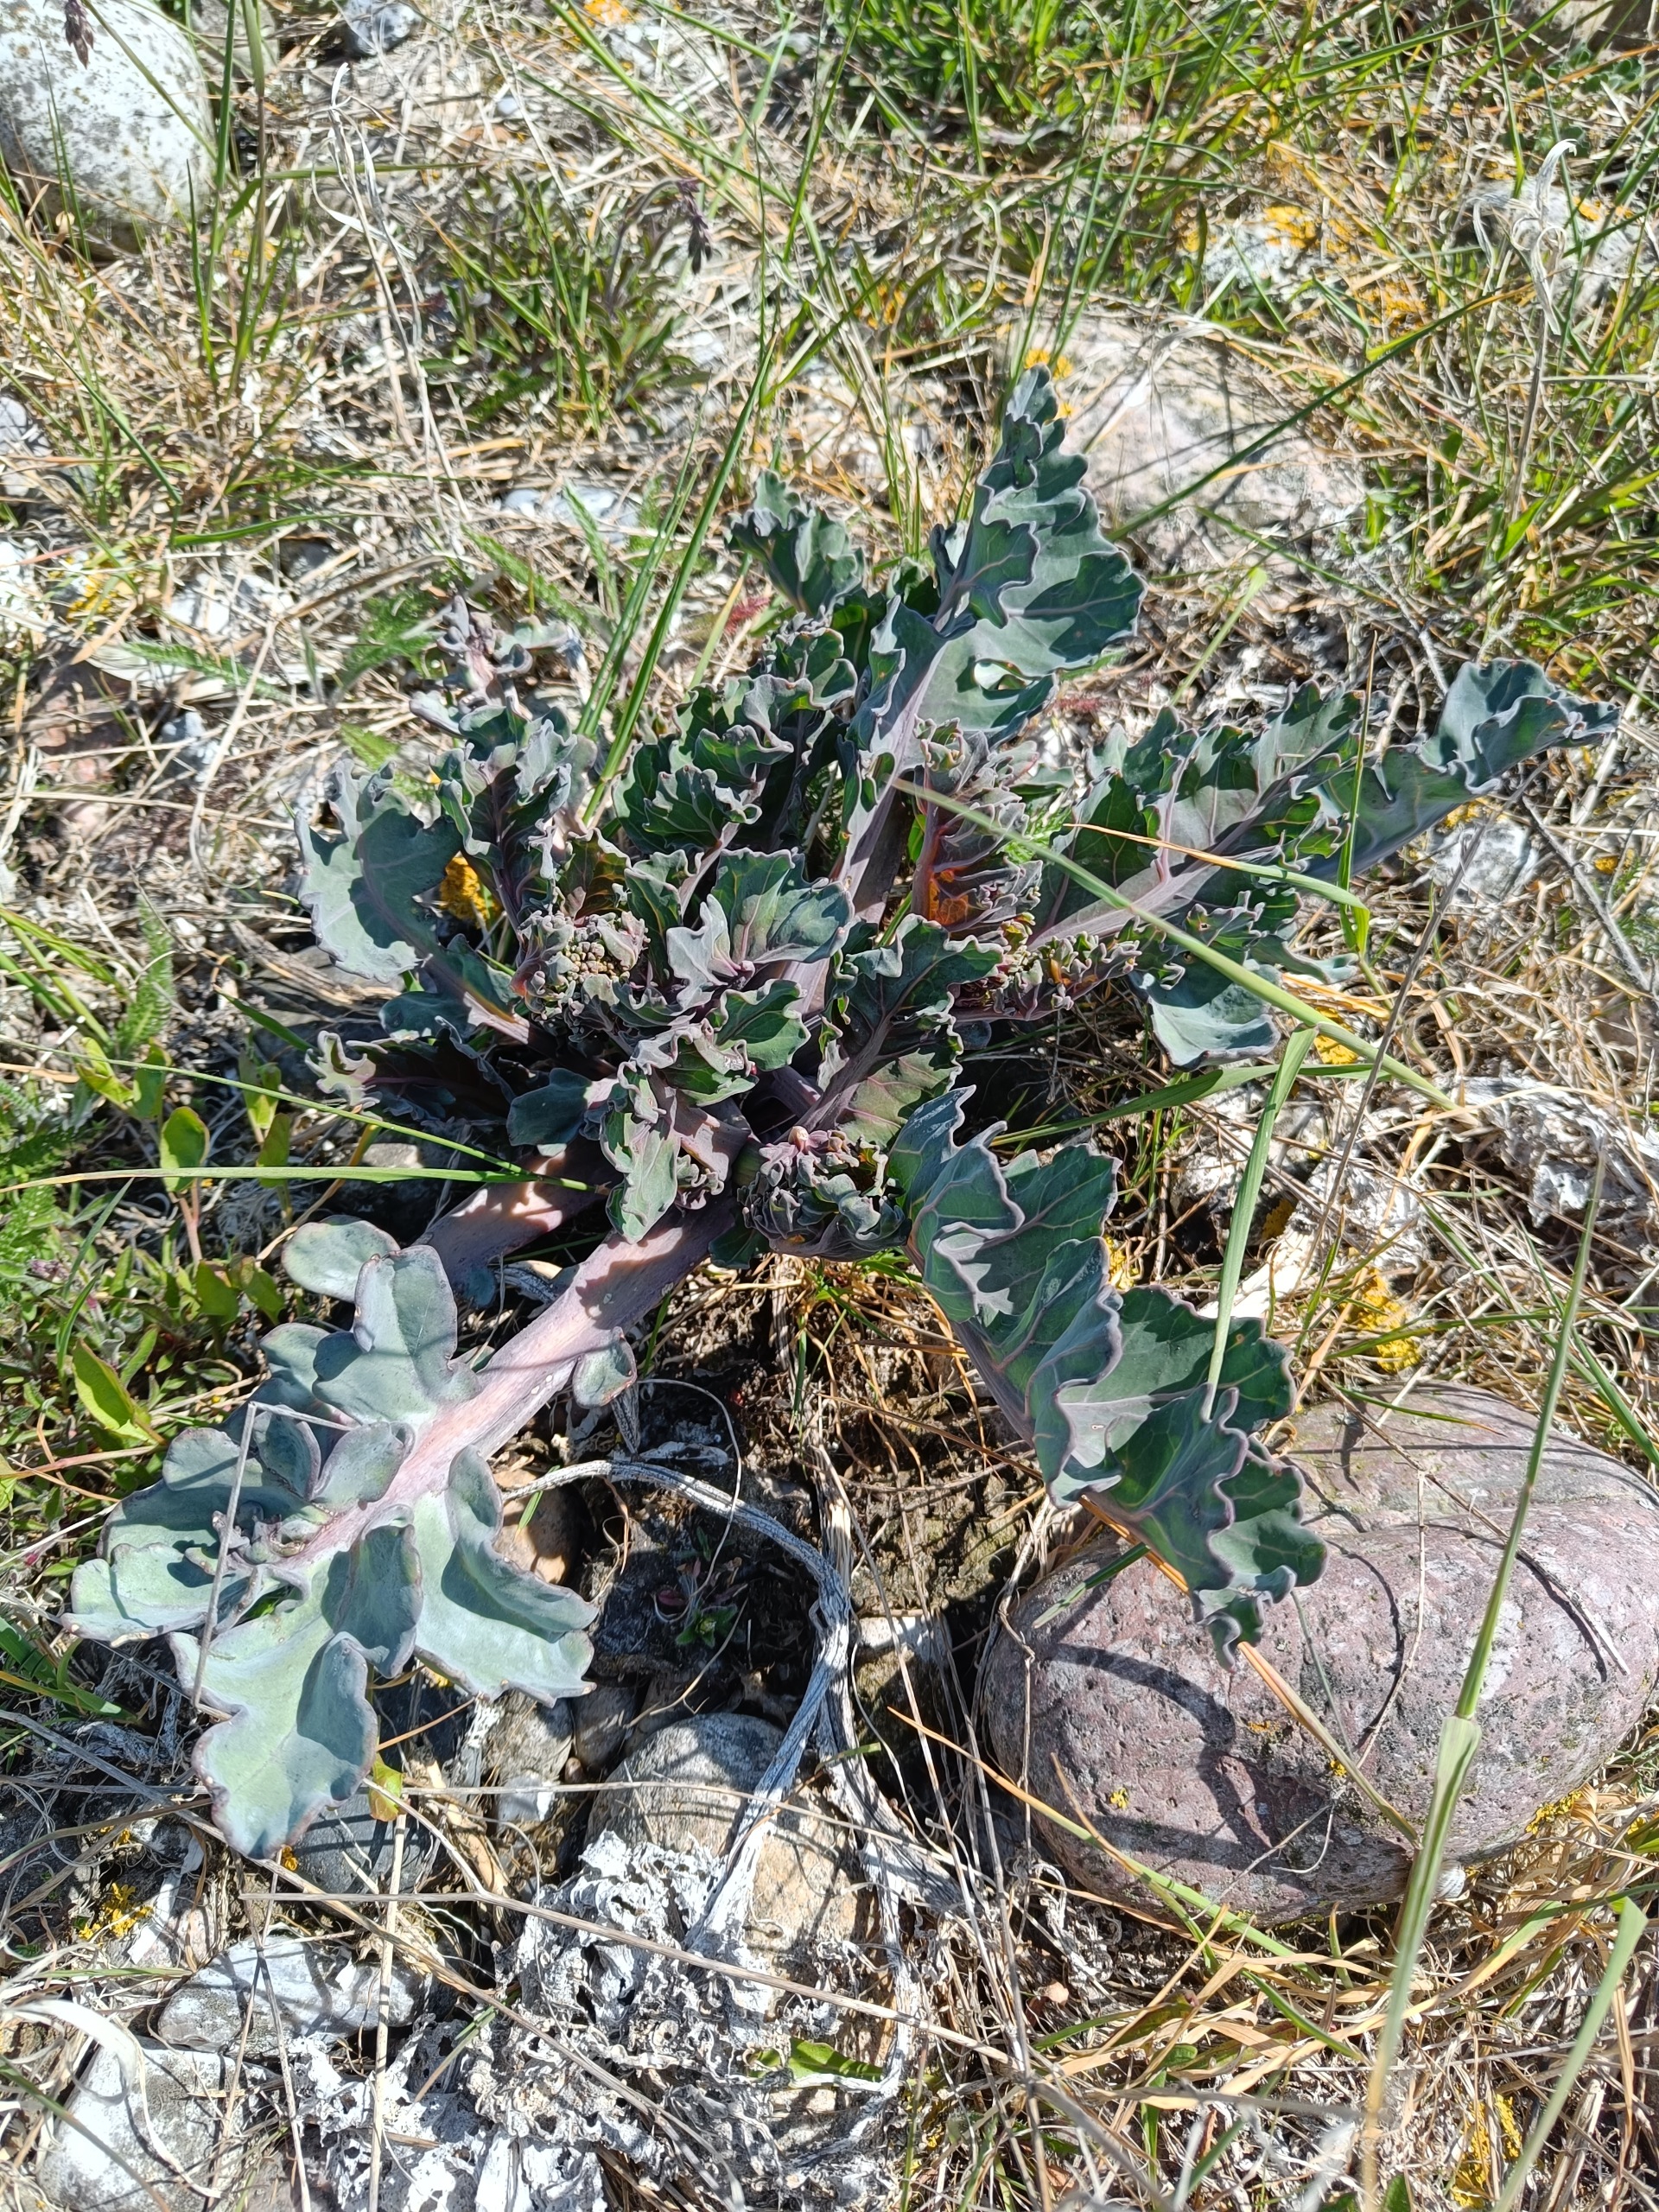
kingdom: Plantae
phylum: Tracheophyta
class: Magnoliopsida
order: Brassicales
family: Brassicaceae
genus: Crambe
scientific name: Crambe maritima
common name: Strandkål
